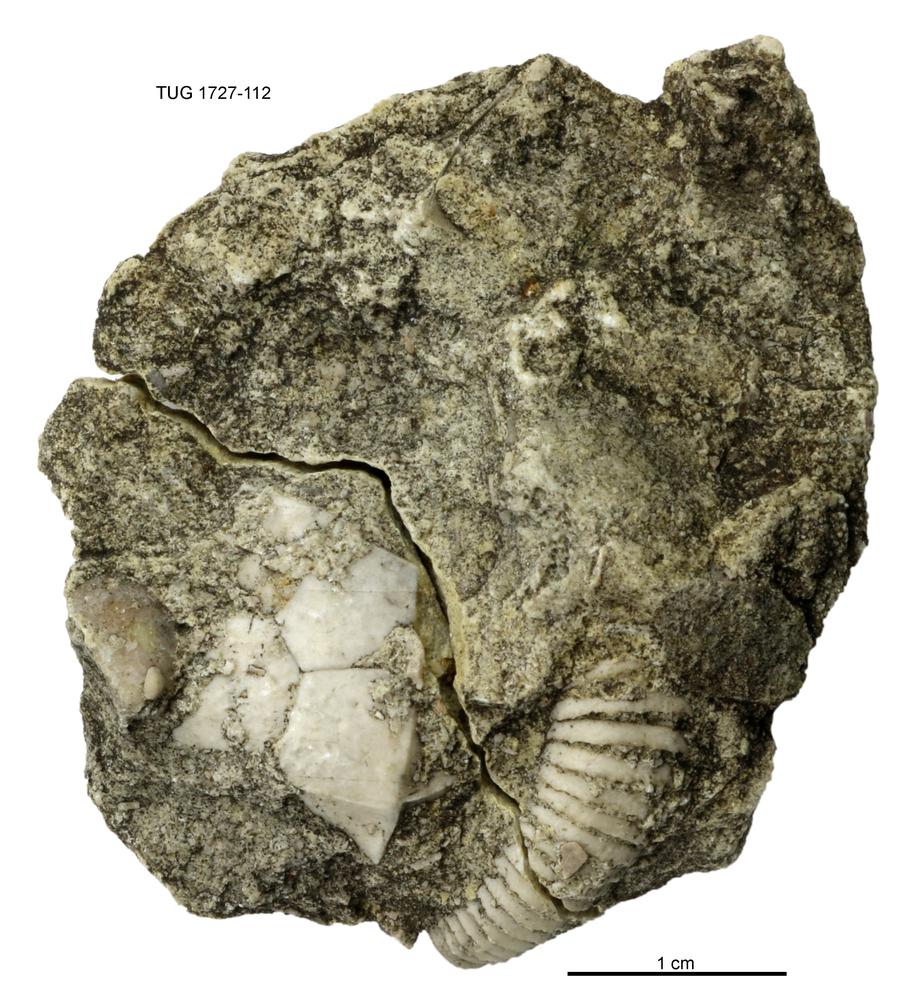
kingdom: Animalia
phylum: Echinodermata
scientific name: Echinodermata
